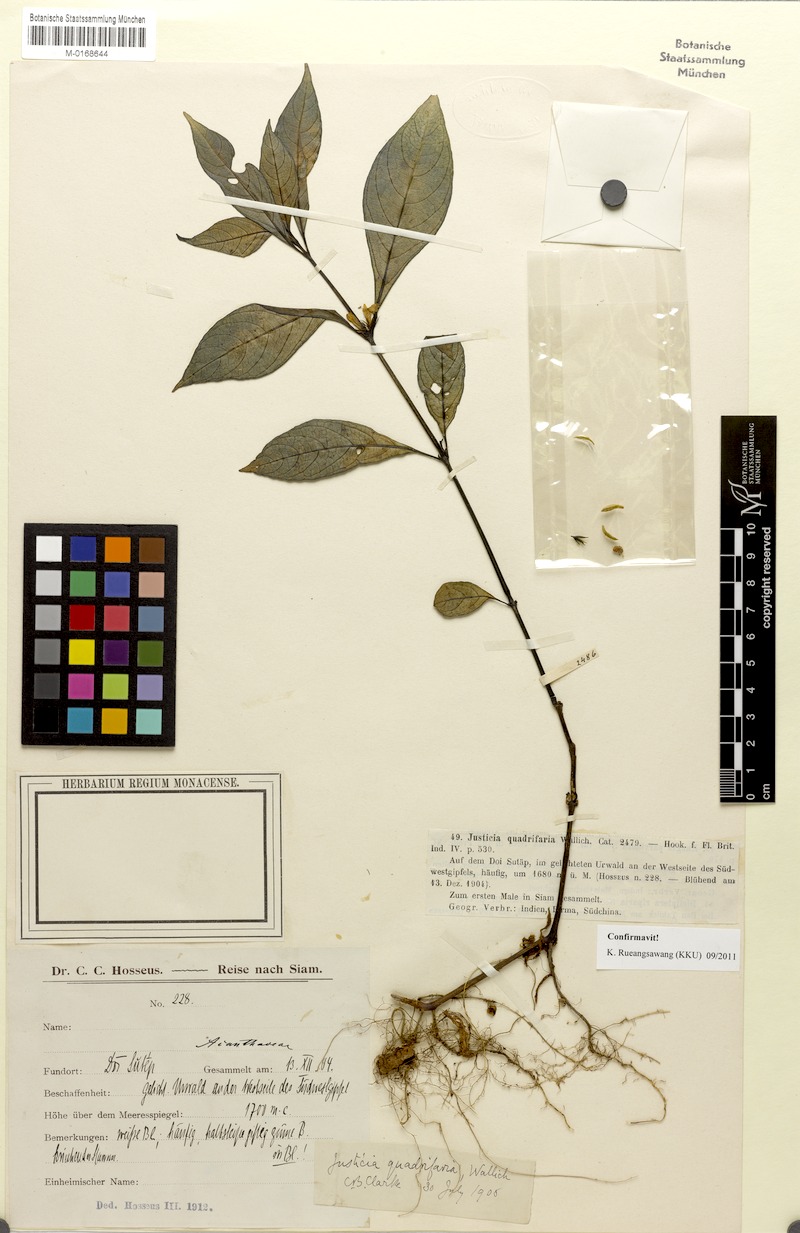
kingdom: Plantae
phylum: Tracheophyta
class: Magnoliopsida
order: Lamiales
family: Acanthaceae
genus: Justicia
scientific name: Justicia quadrifaria
